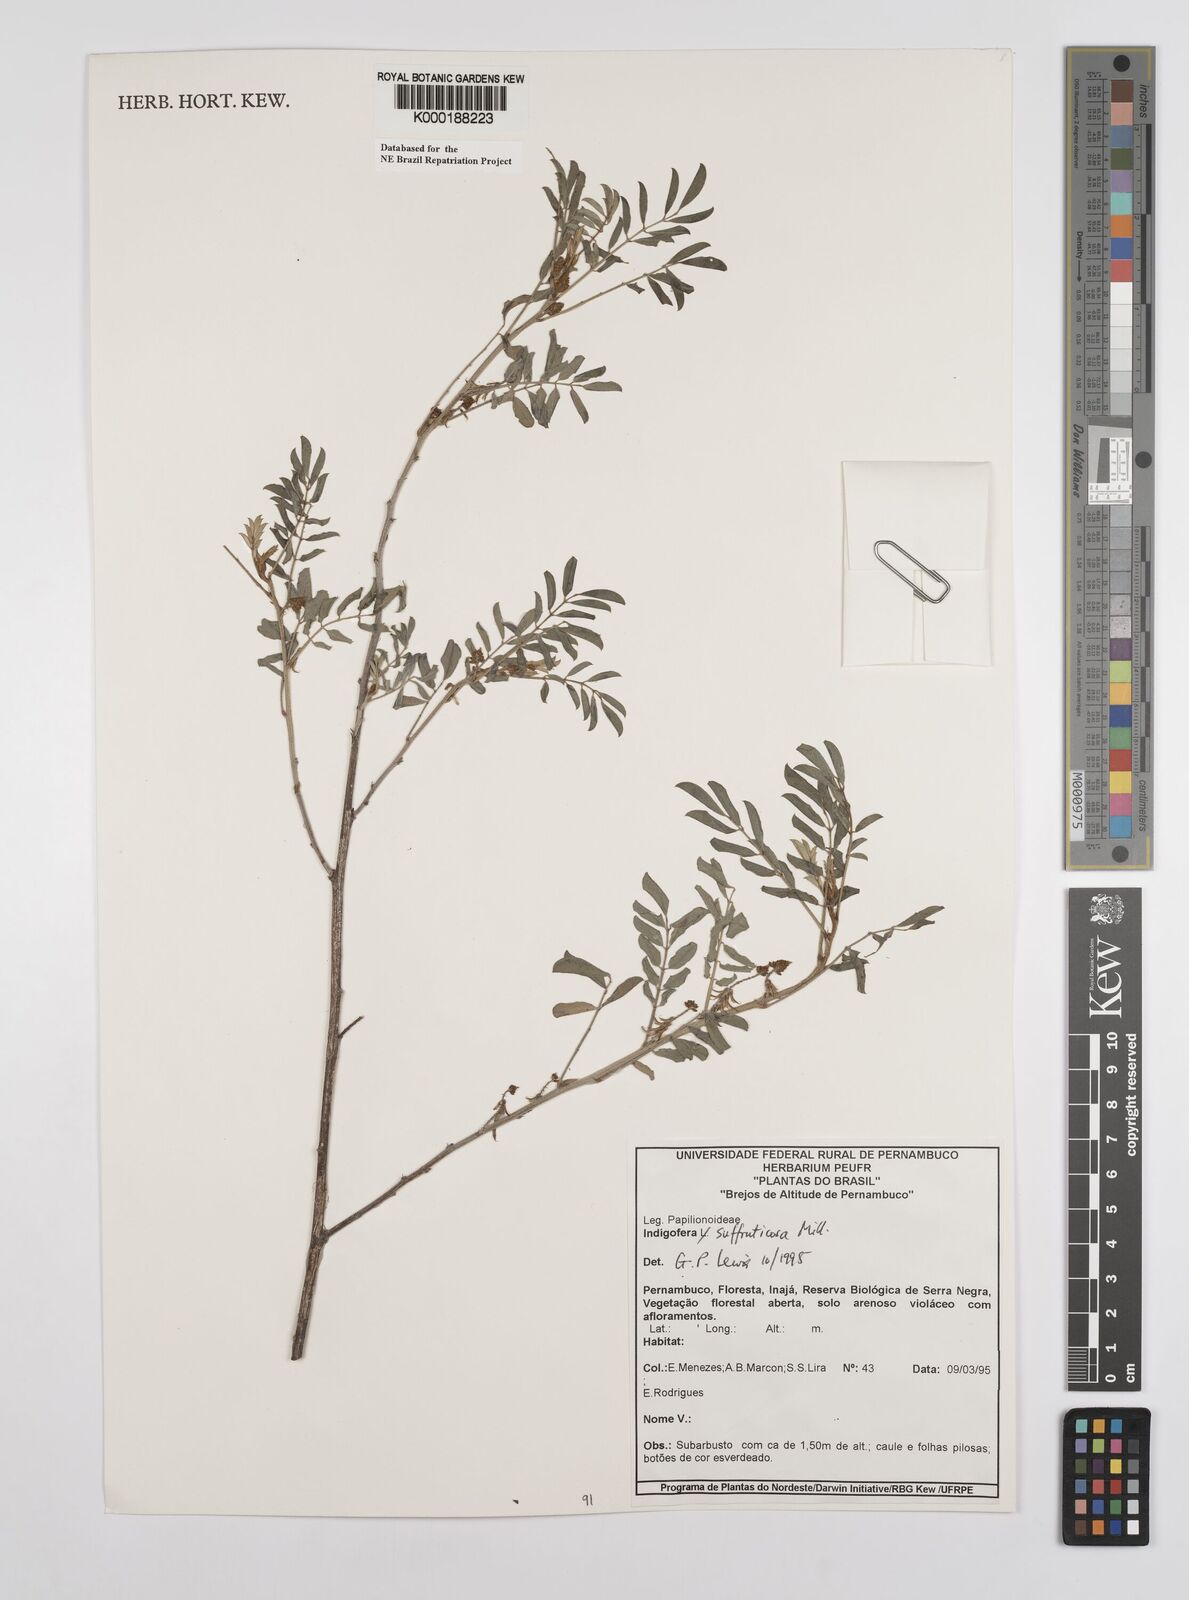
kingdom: Plantae
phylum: Tracheophyta
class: Magnoliopsida
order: Fabales
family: Fabaceae
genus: Indigofera
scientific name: Indigofera suffruticosa
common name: Anil de pasto
